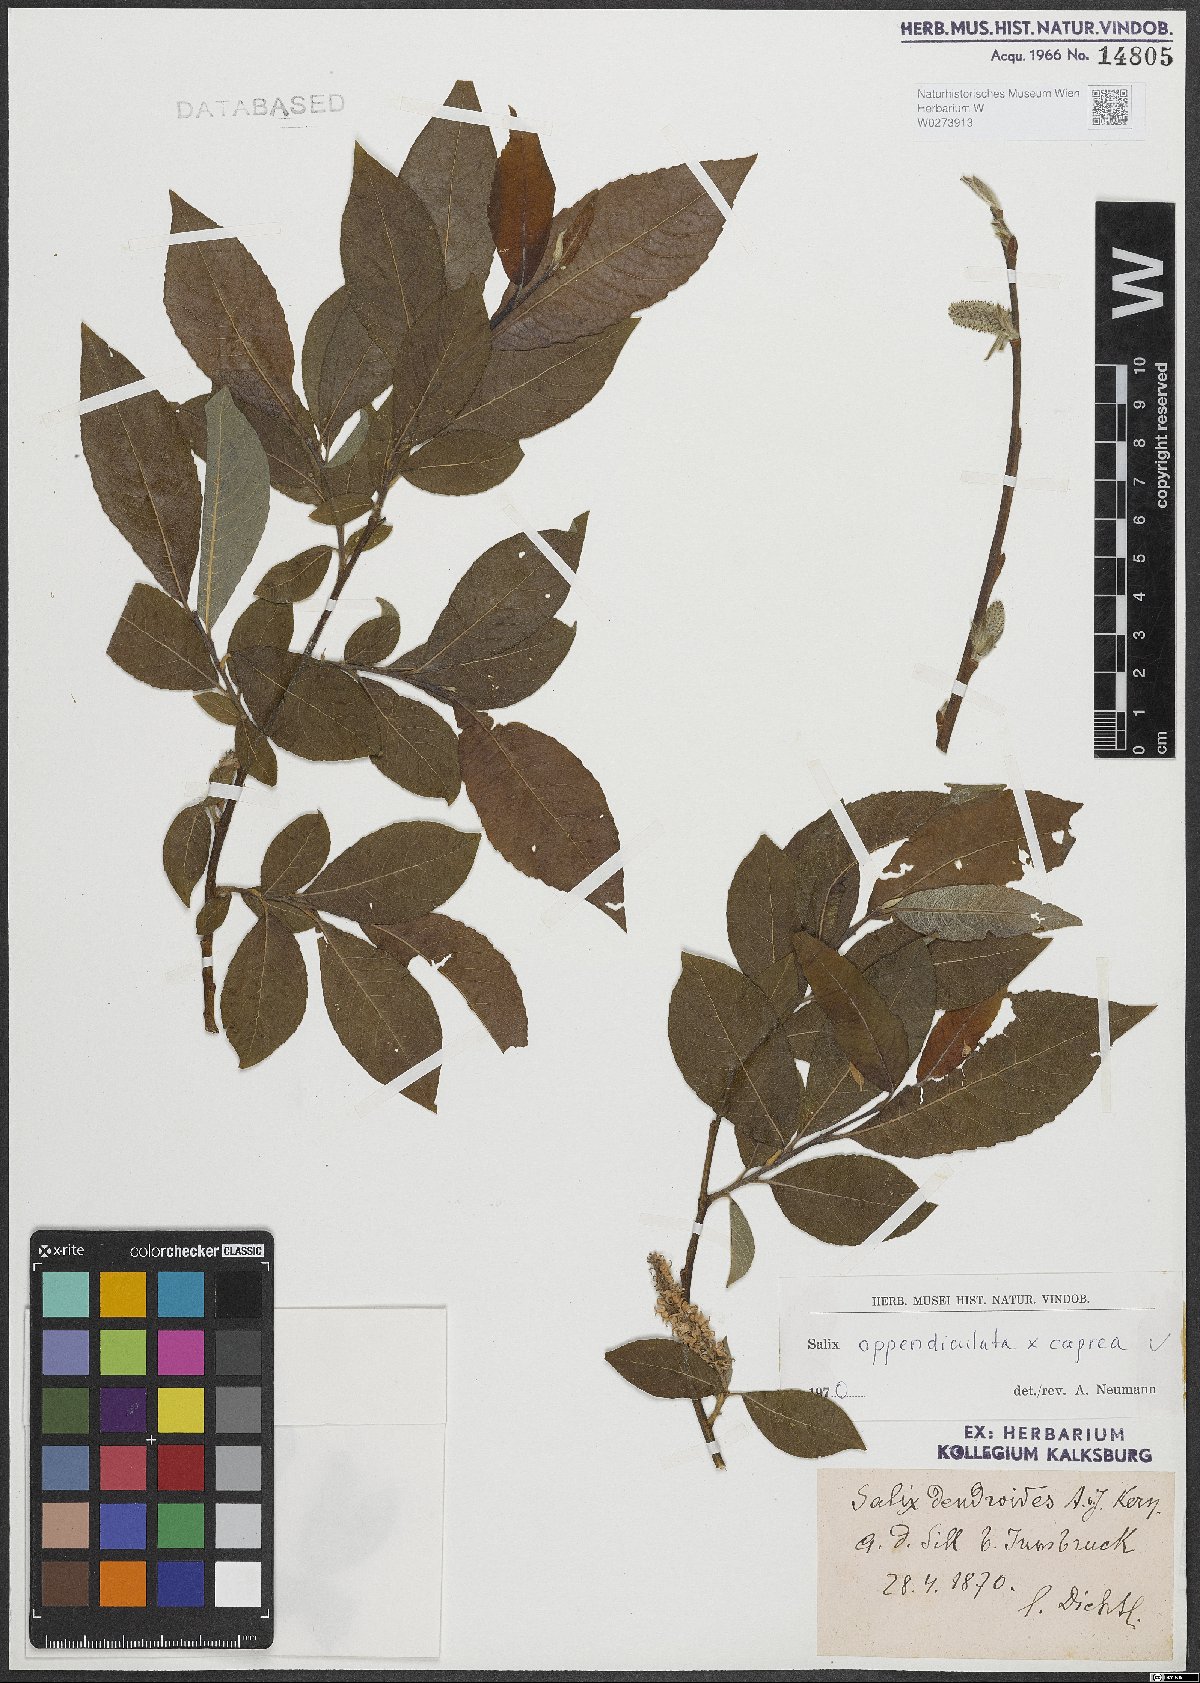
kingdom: Plantae
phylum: Tracheophyta
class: Magnoliopsida
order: Malpighiales
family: Salicaceae
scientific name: Salicaceae
